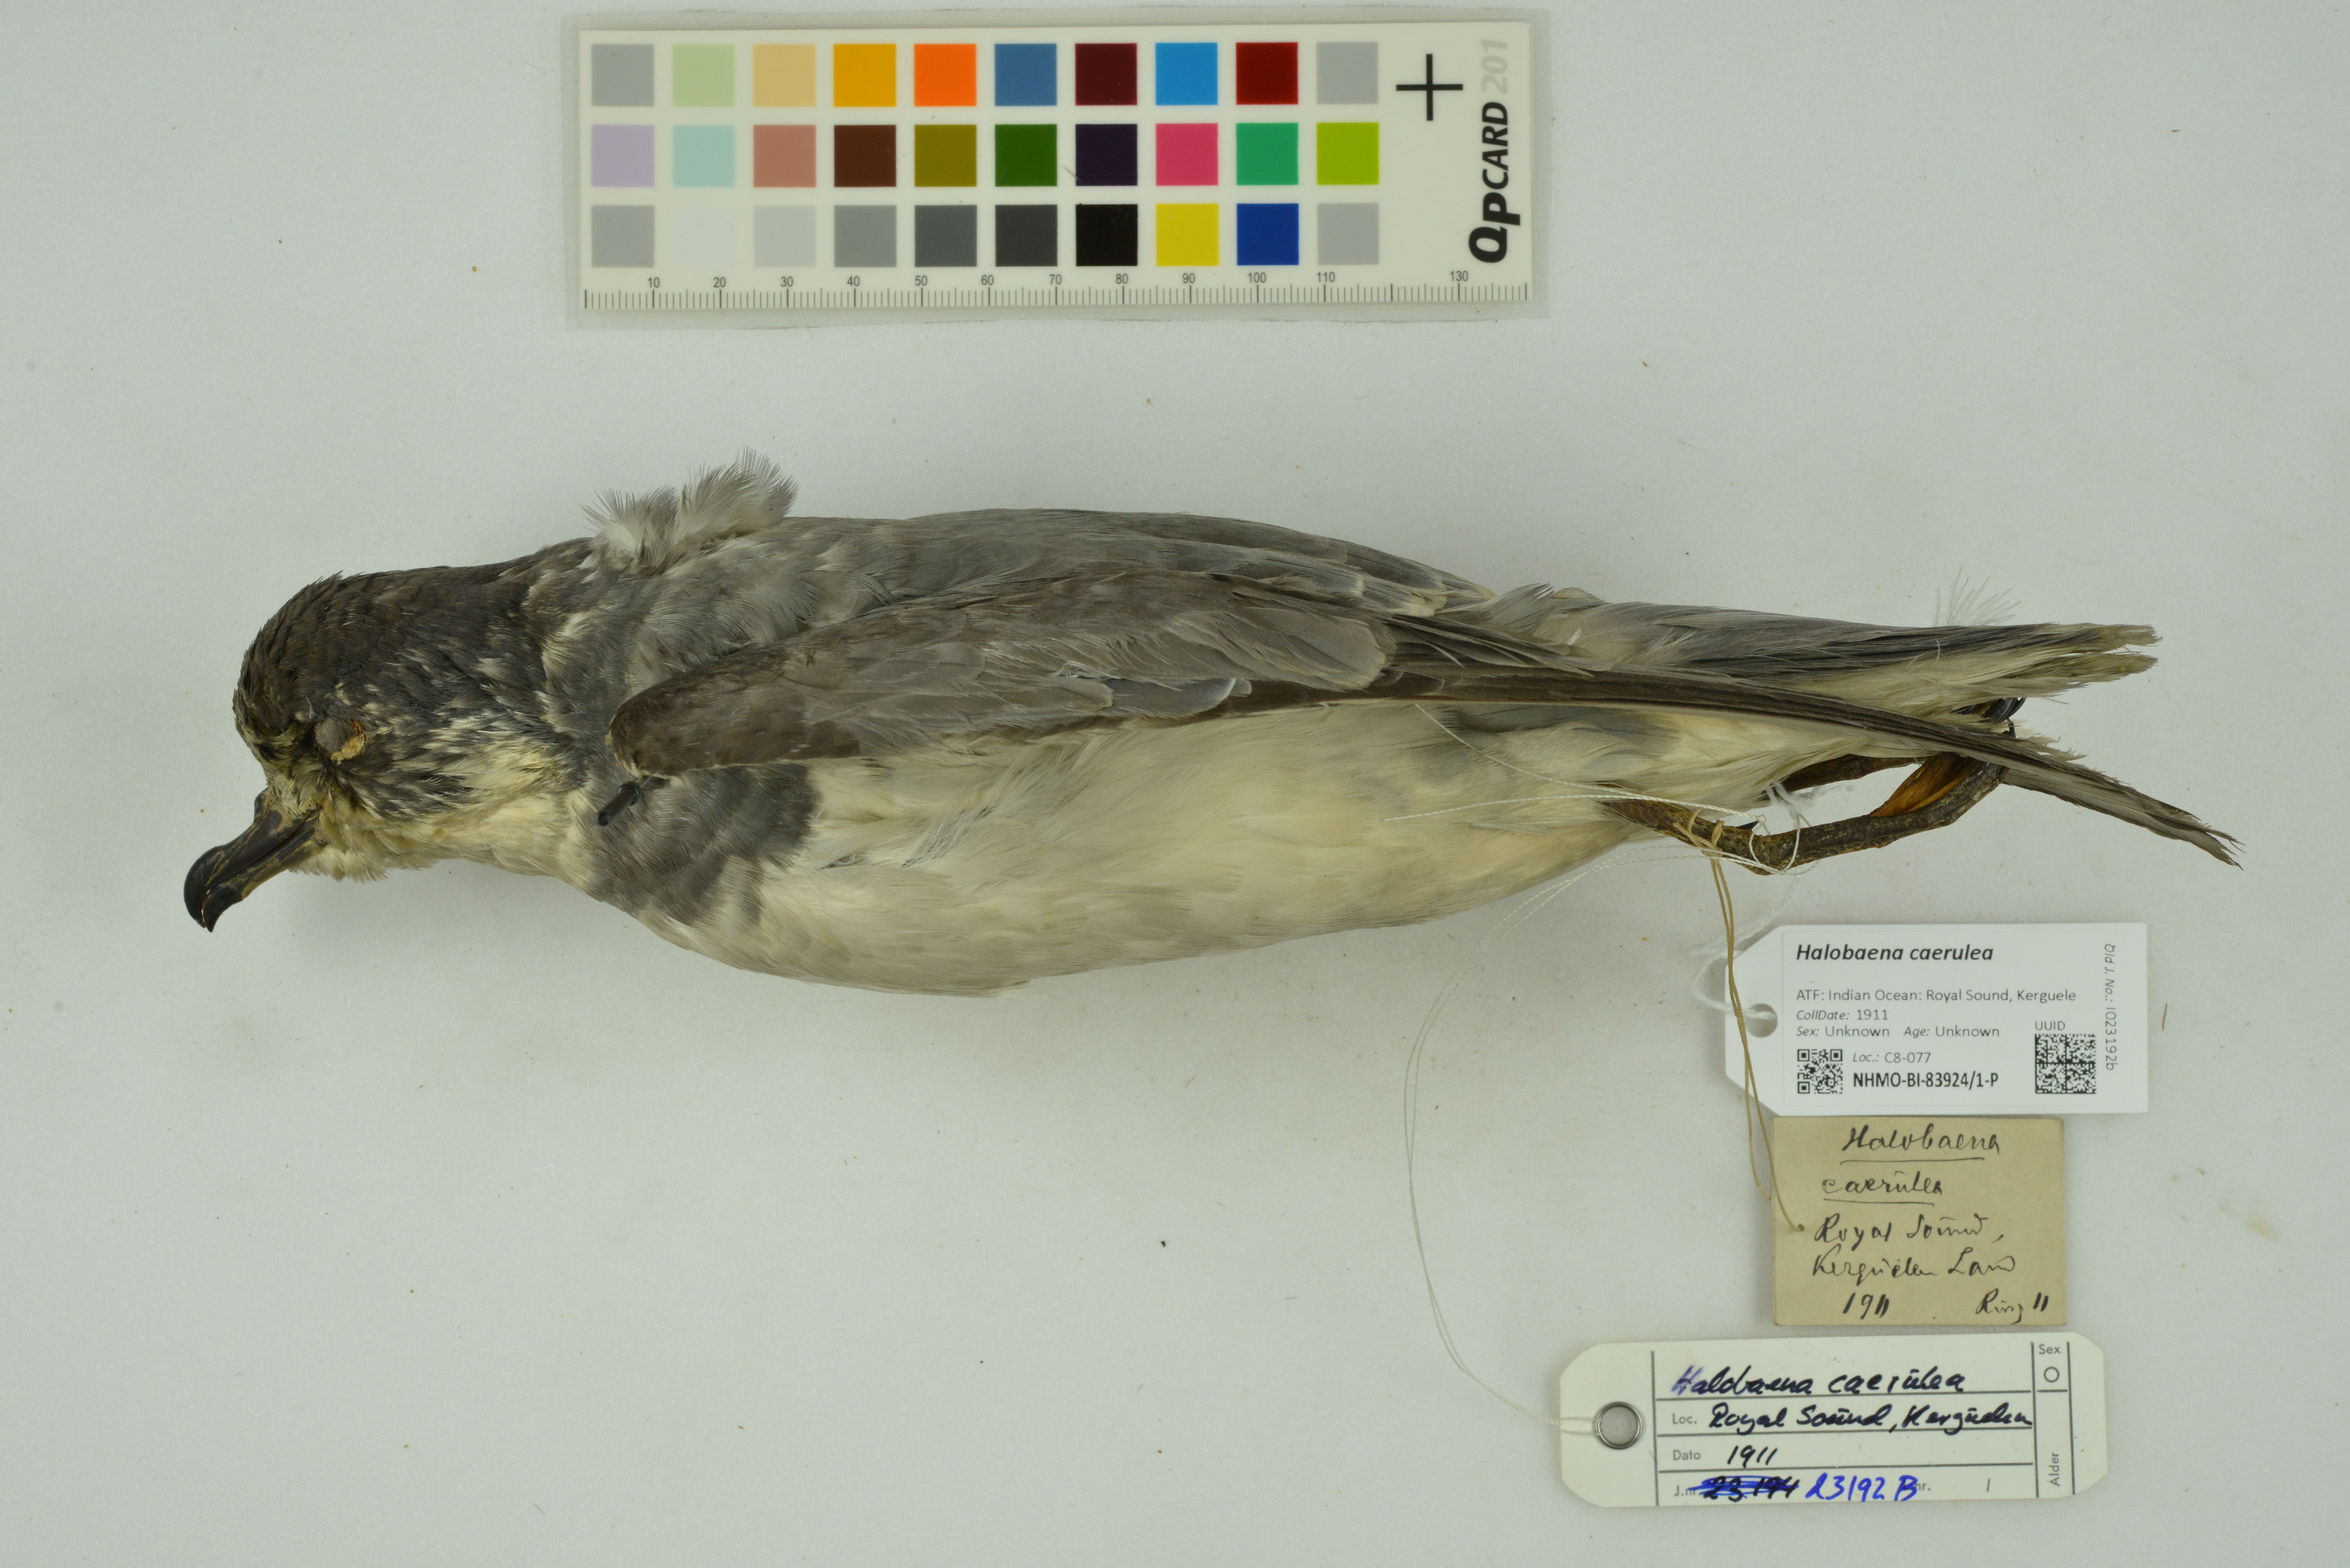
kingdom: Animalia
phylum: Chordata
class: Aves
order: Procellariiformes
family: Procellariidae
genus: Halobaena
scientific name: Halobaena caerulea
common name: Blue petrel
